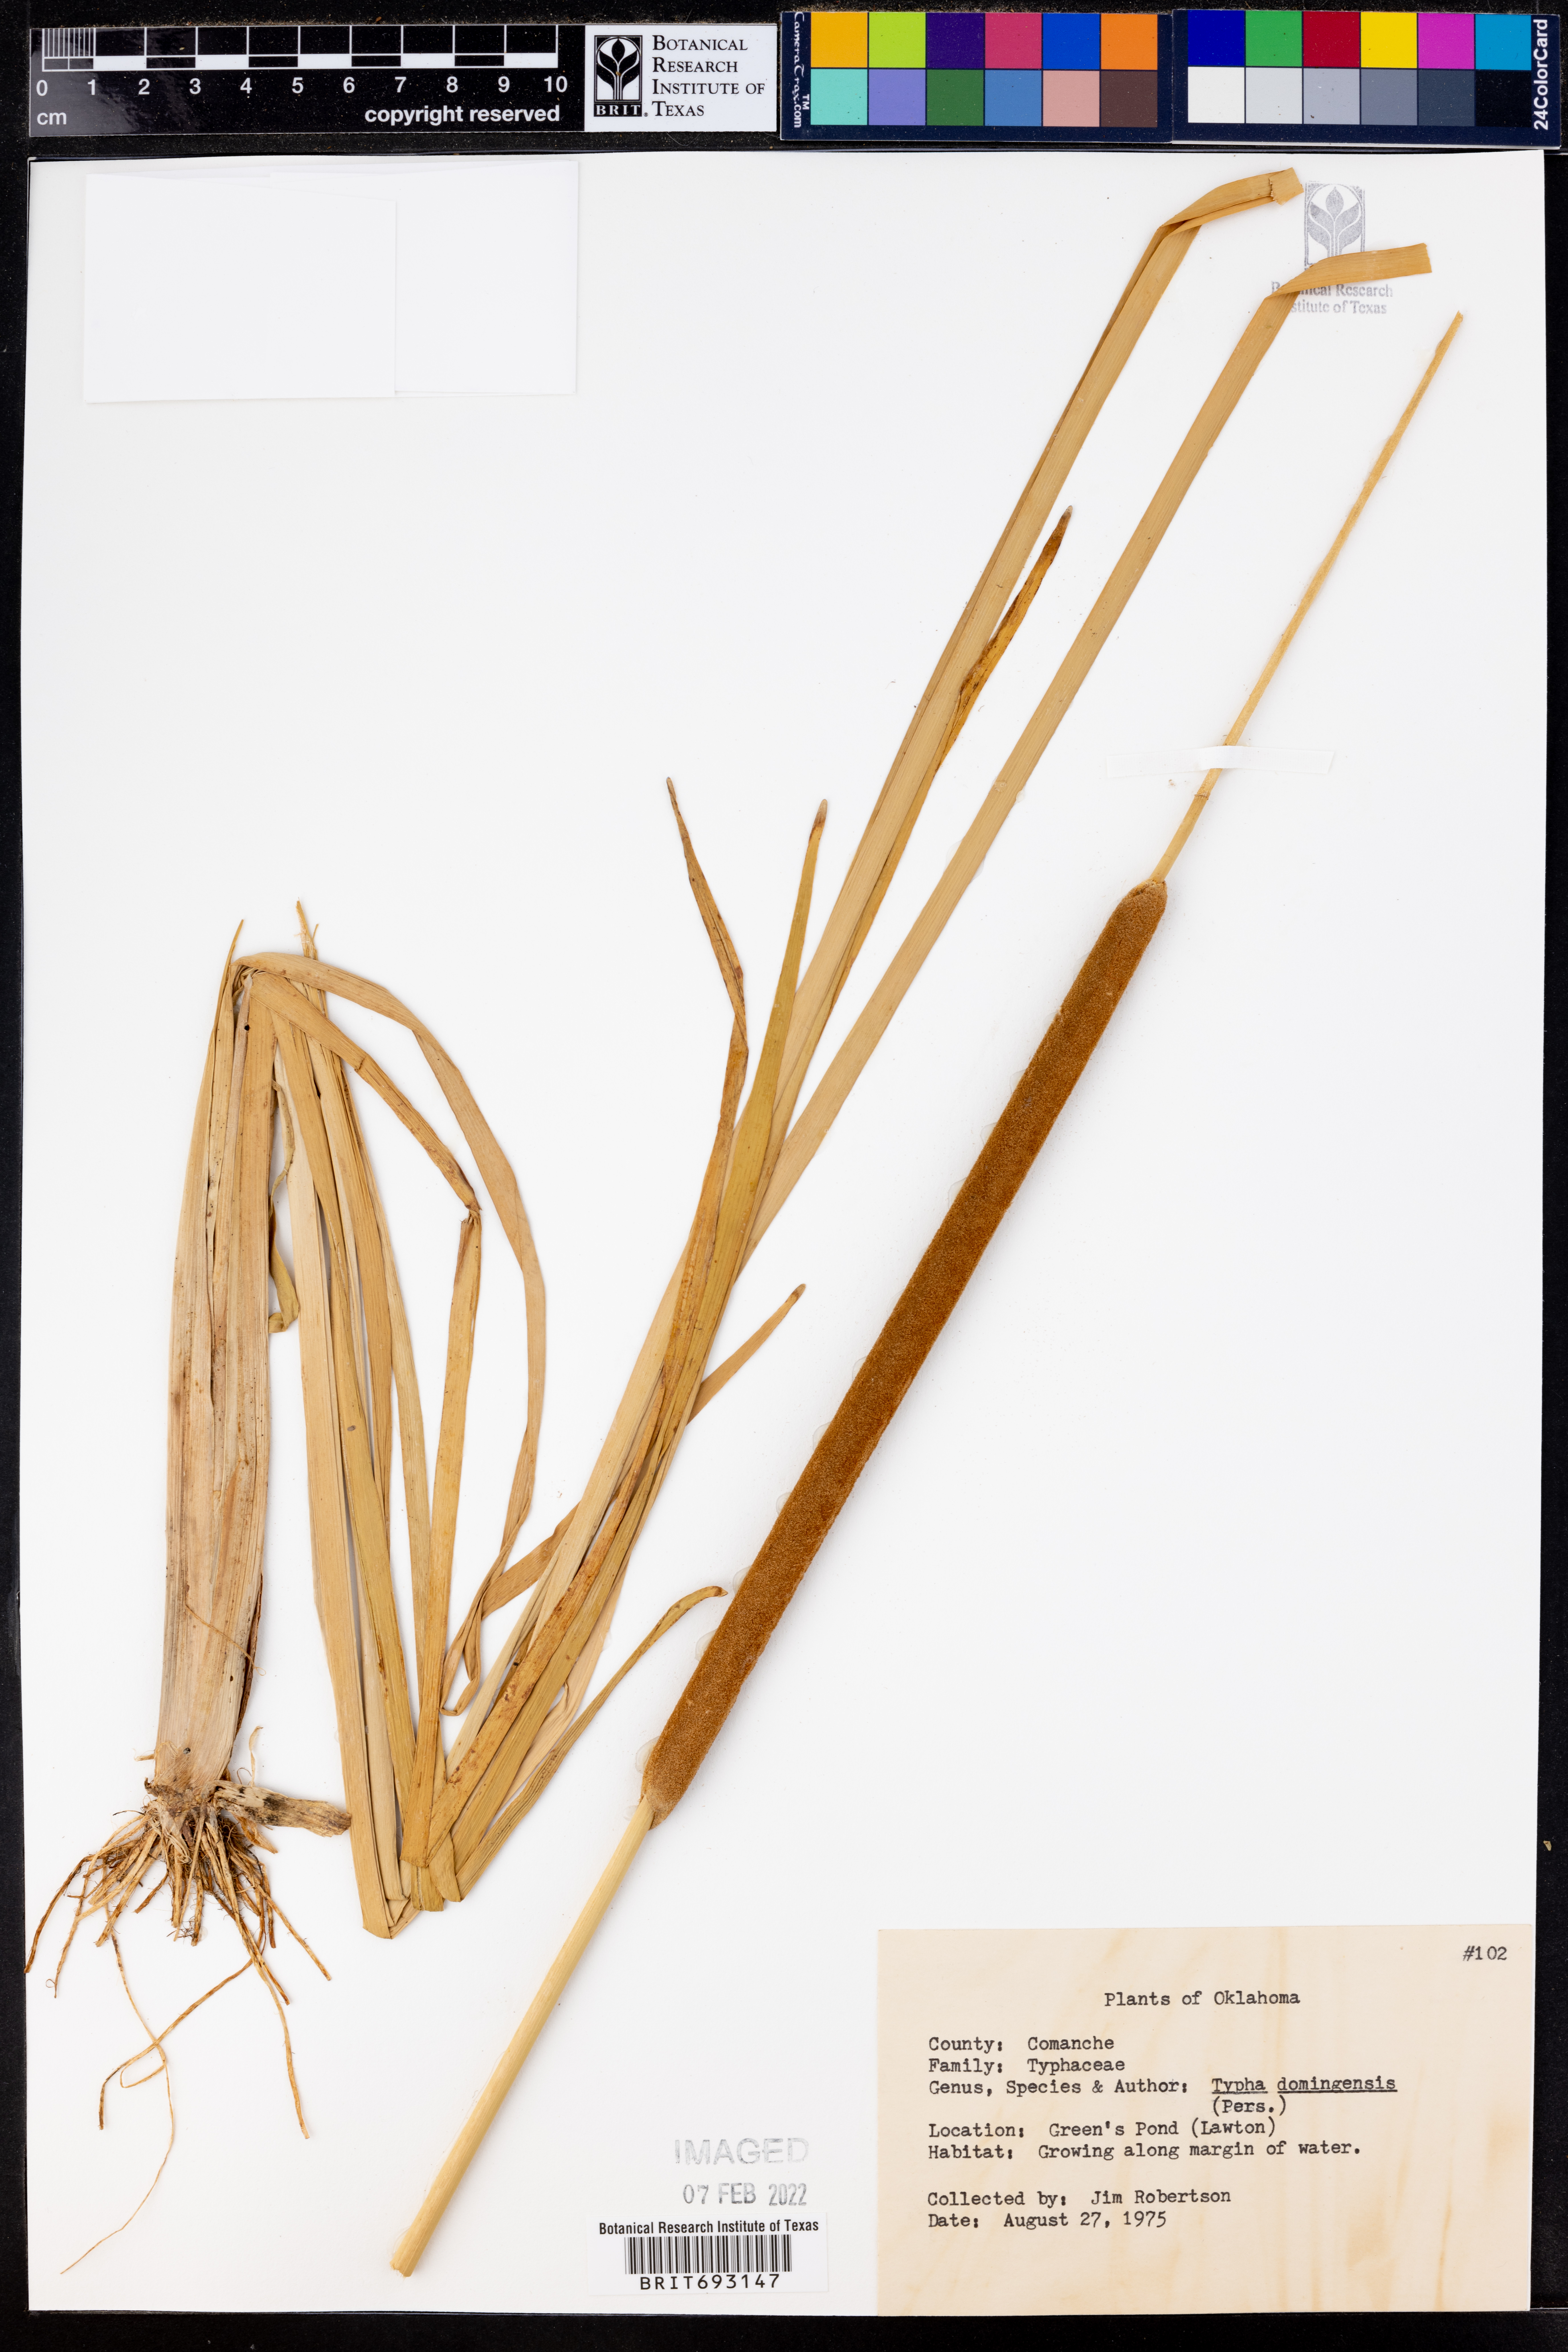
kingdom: Plantae
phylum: Tracheophyta
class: Liliopsida
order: Poales
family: Typhaceae
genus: Typha
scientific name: Typha domingensis
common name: Southern cattail
